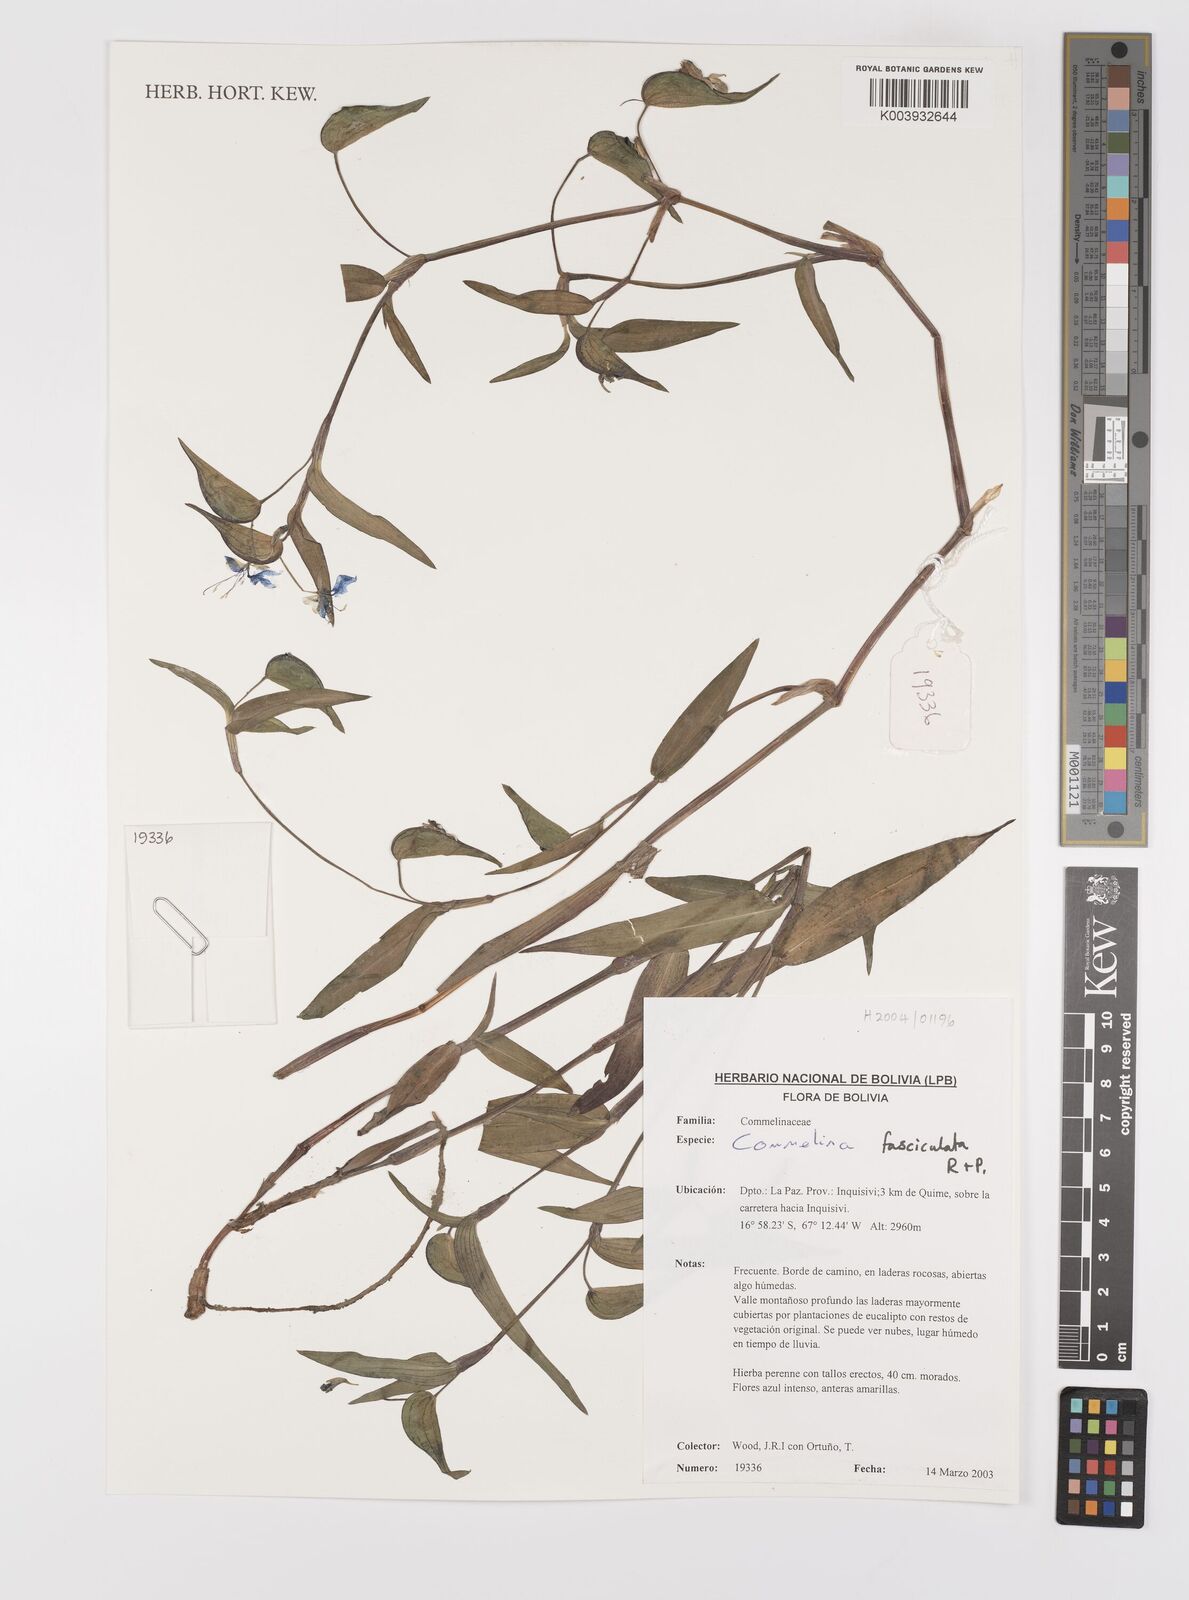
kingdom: Plantae
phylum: Tracheophyta
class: Liliopsida
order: Commelinales
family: Commelinaceae
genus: Commelina
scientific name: Commelina tuberosa
